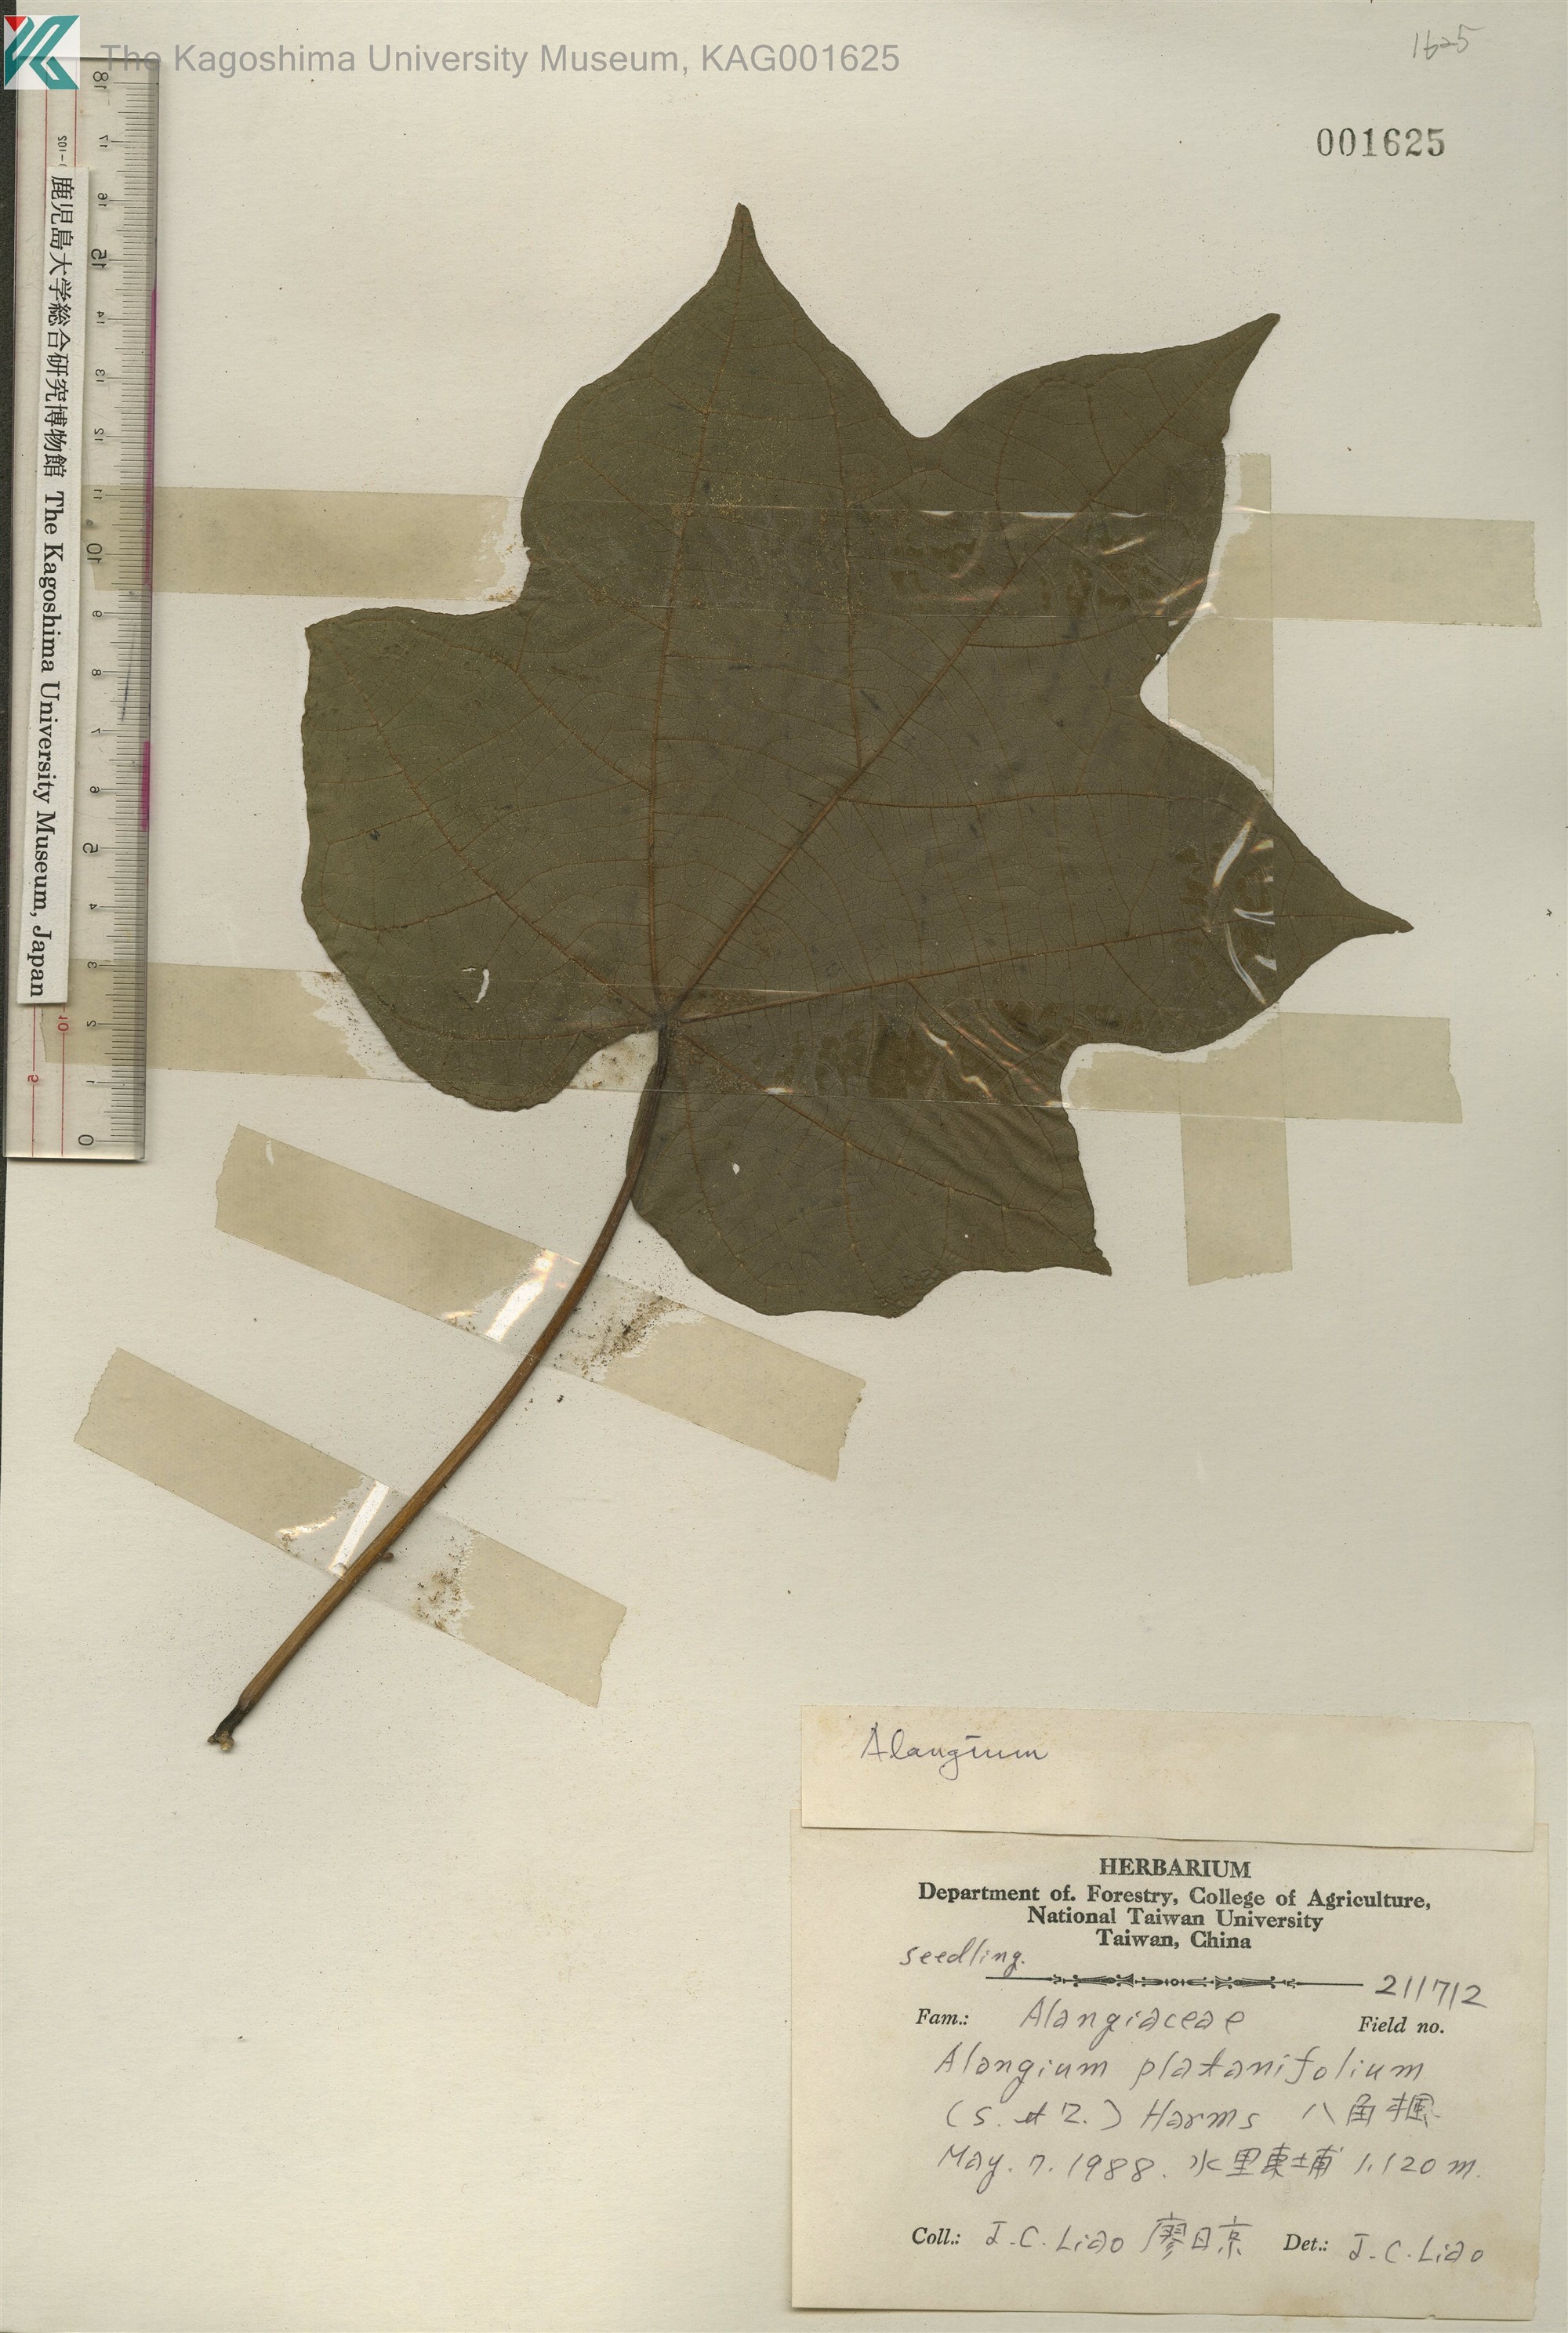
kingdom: Plantae
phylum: Tracheophyta
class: Magnoliopsida
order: Cornales
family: Cornaceae
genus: Alangium
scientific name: Alangium chinense
